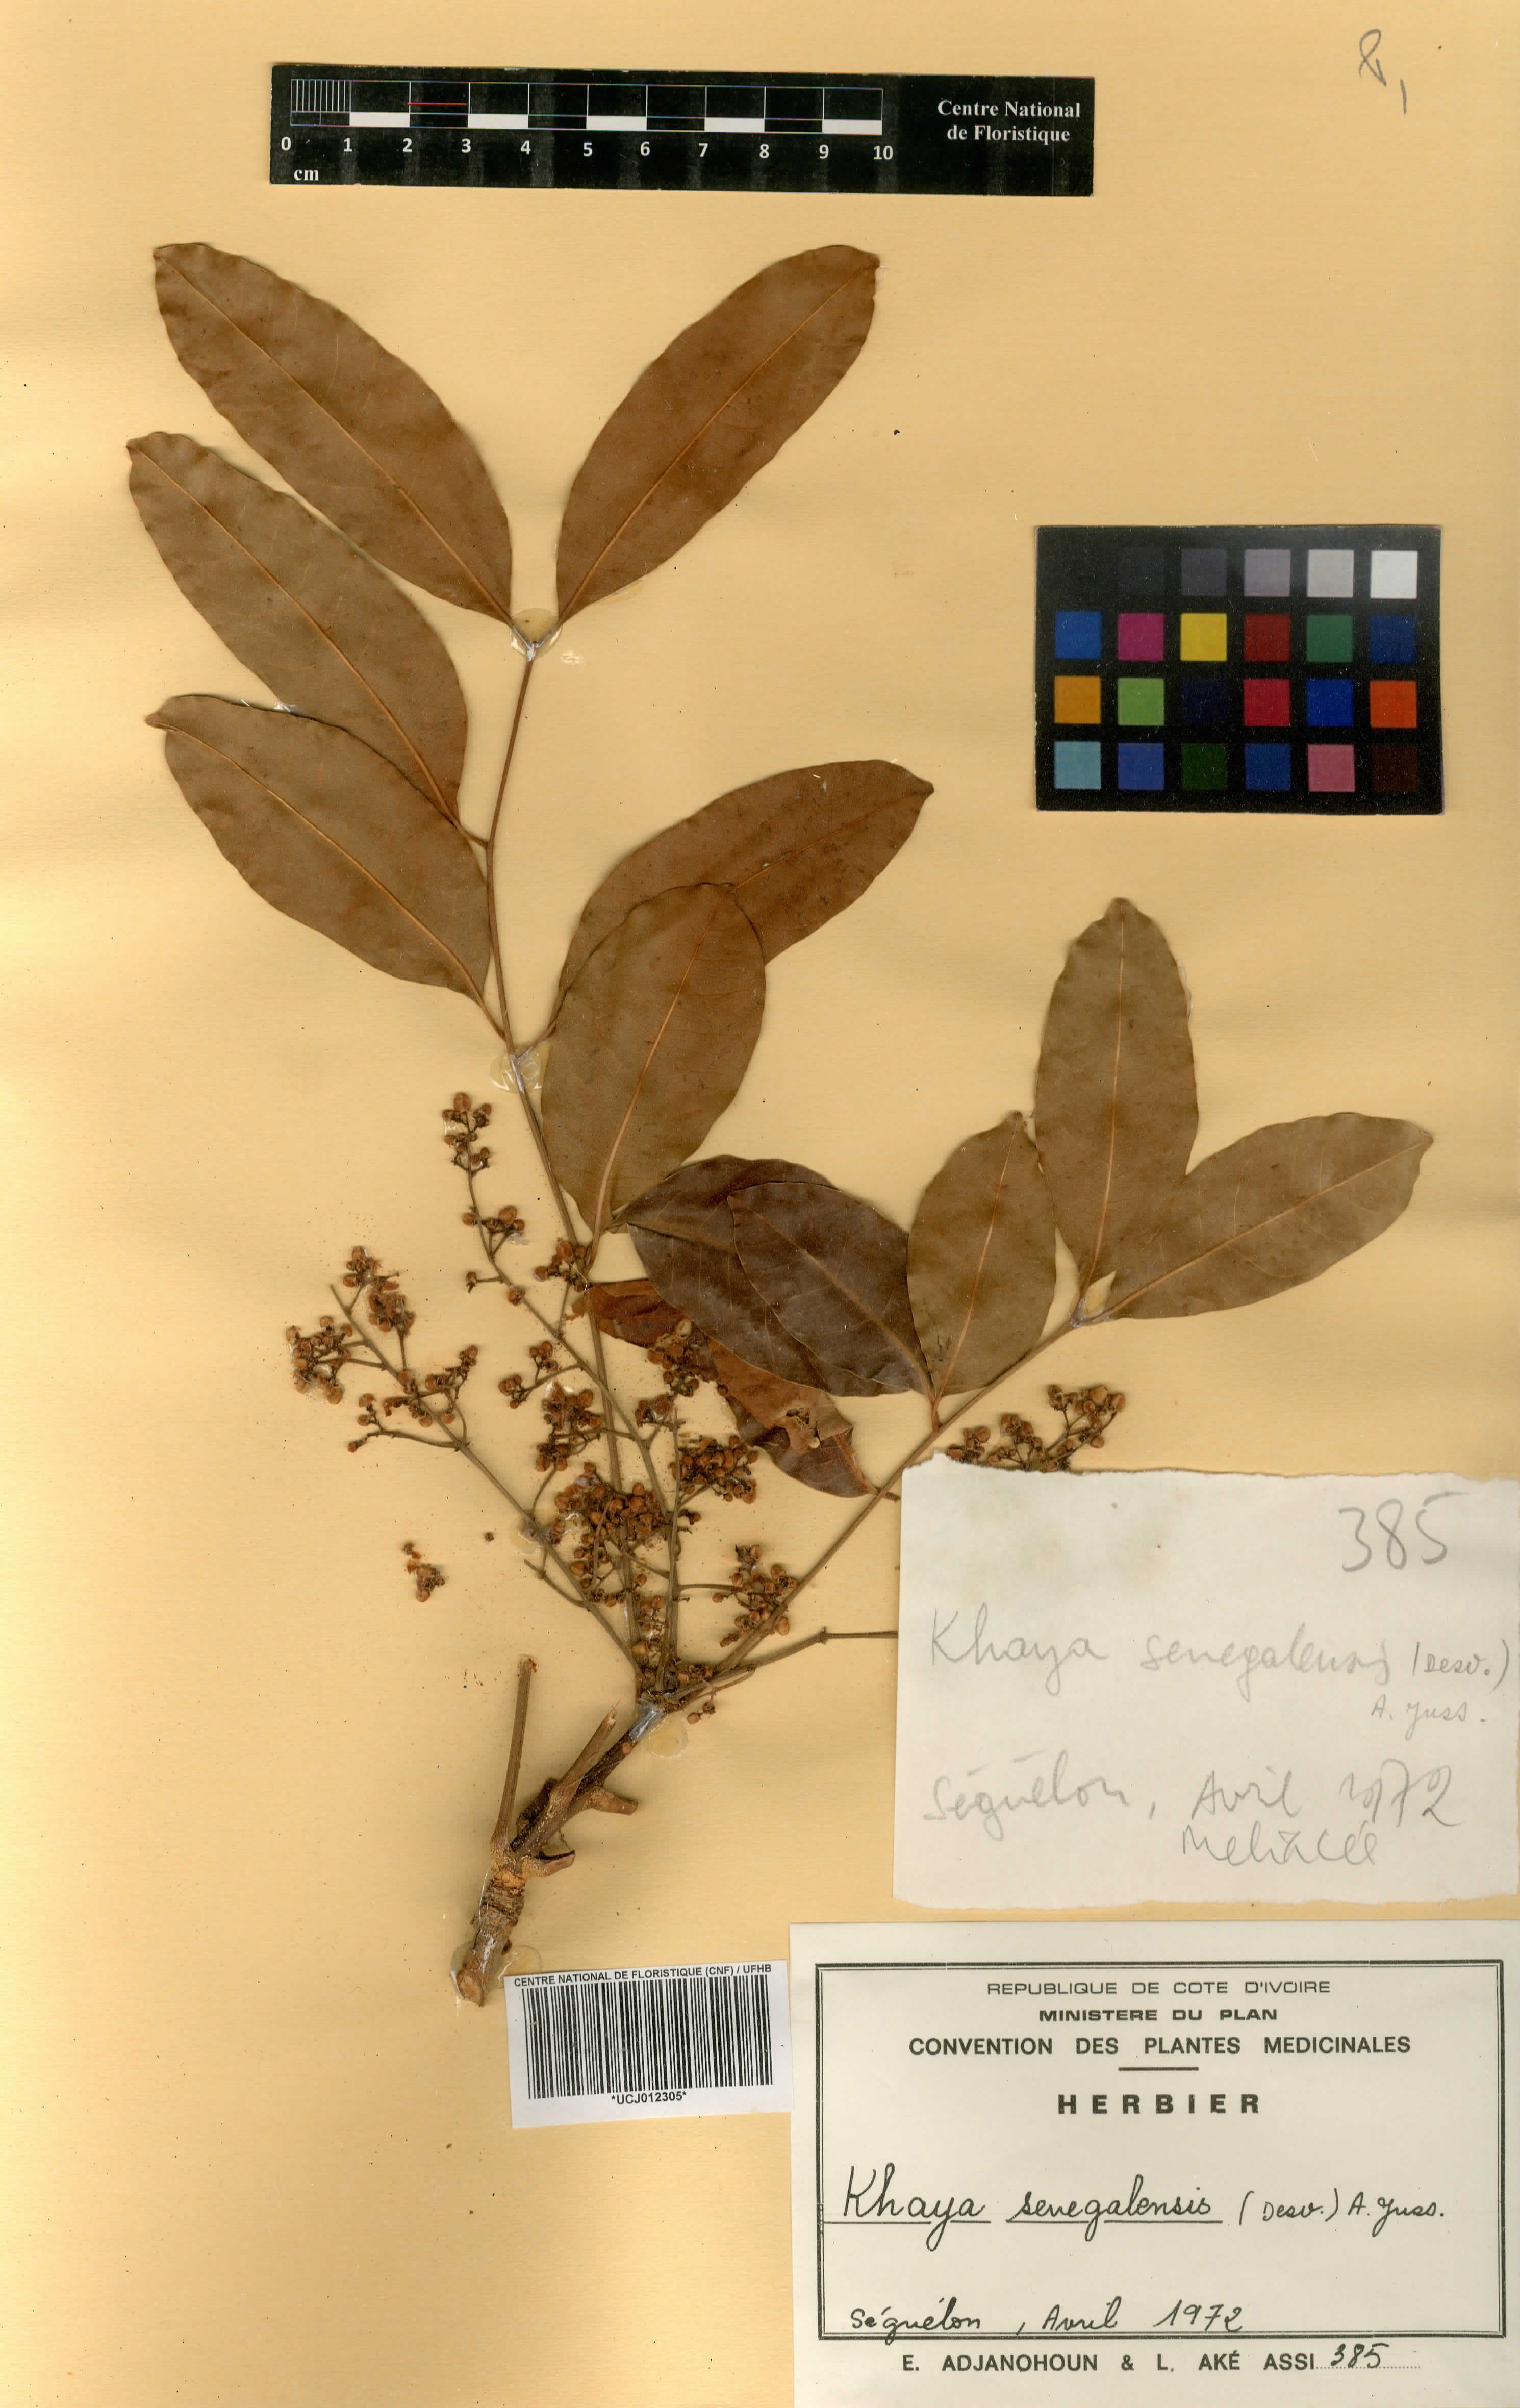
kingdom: Plantae
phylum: Tracheophyta
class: Magnoliopsida
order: Sapindales
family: Meliaceae
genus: Khaya
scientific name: Khaya senegalensis
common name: Senegal mahogany
